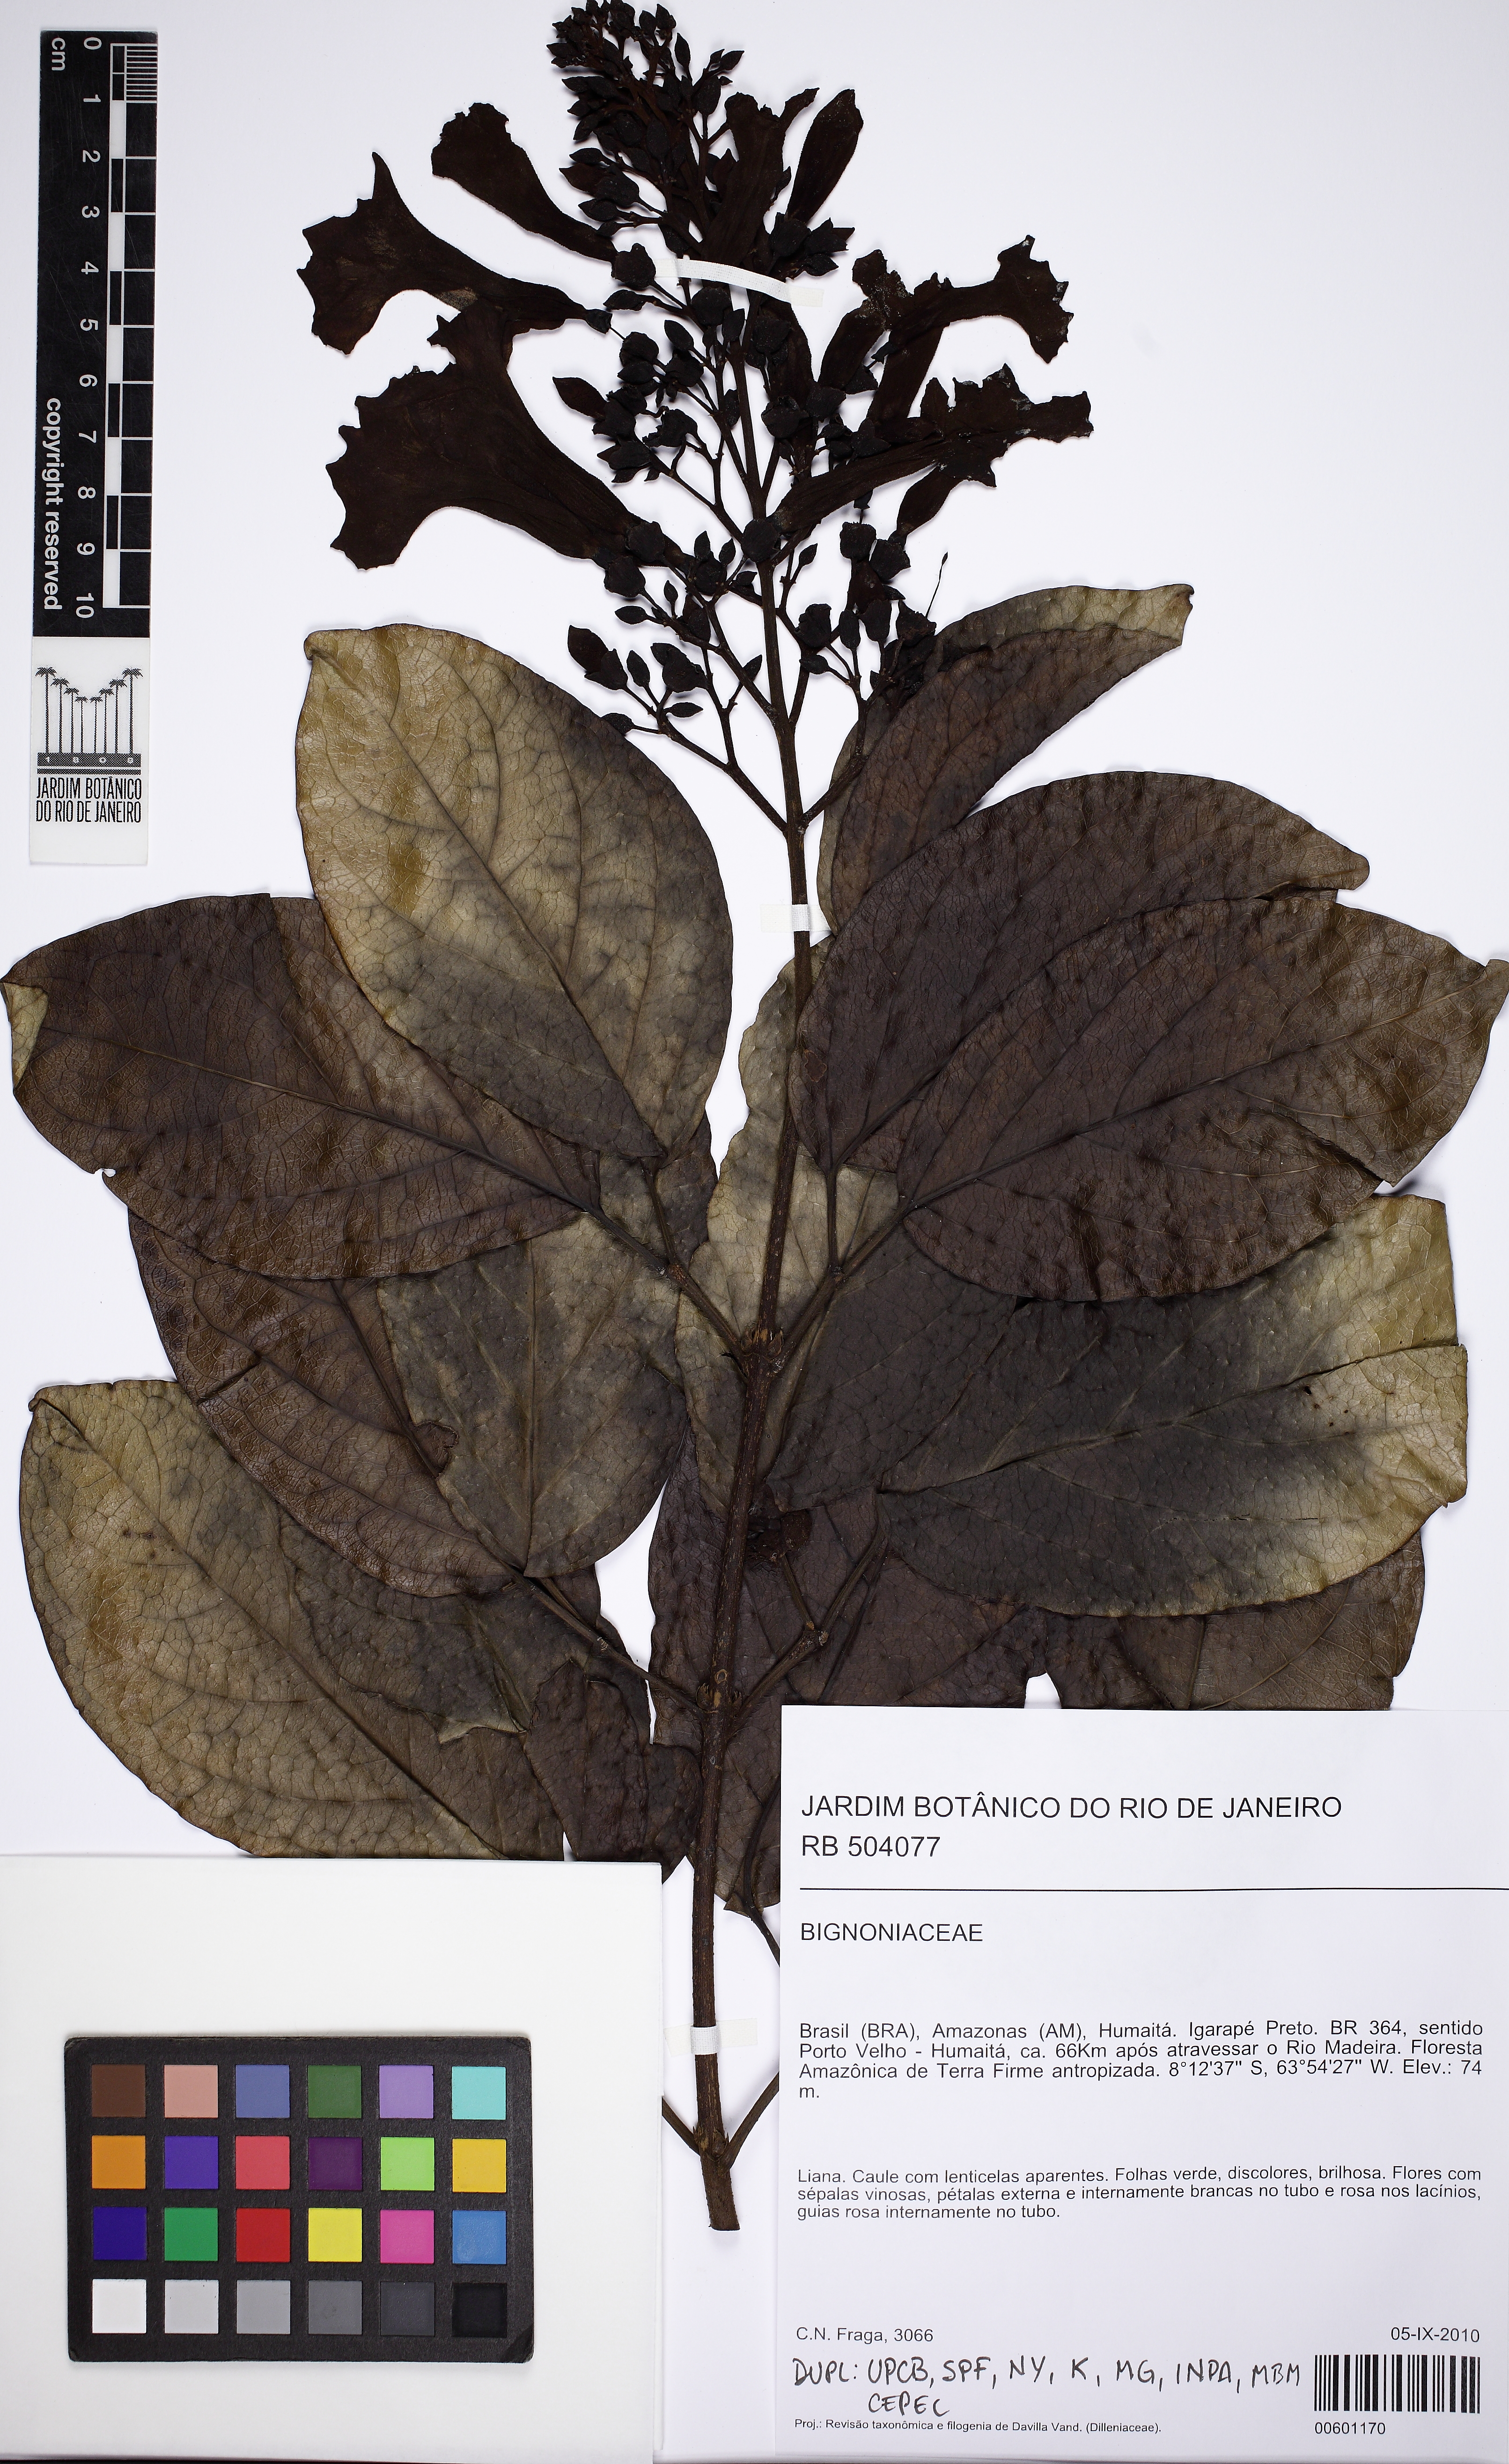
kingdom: Plantae
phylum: Tracheophyta
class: Magnoliopsida
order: Lamiales
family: Bignoniaceae
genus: Tanaecium
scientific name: Tanaecium pyramidatum
